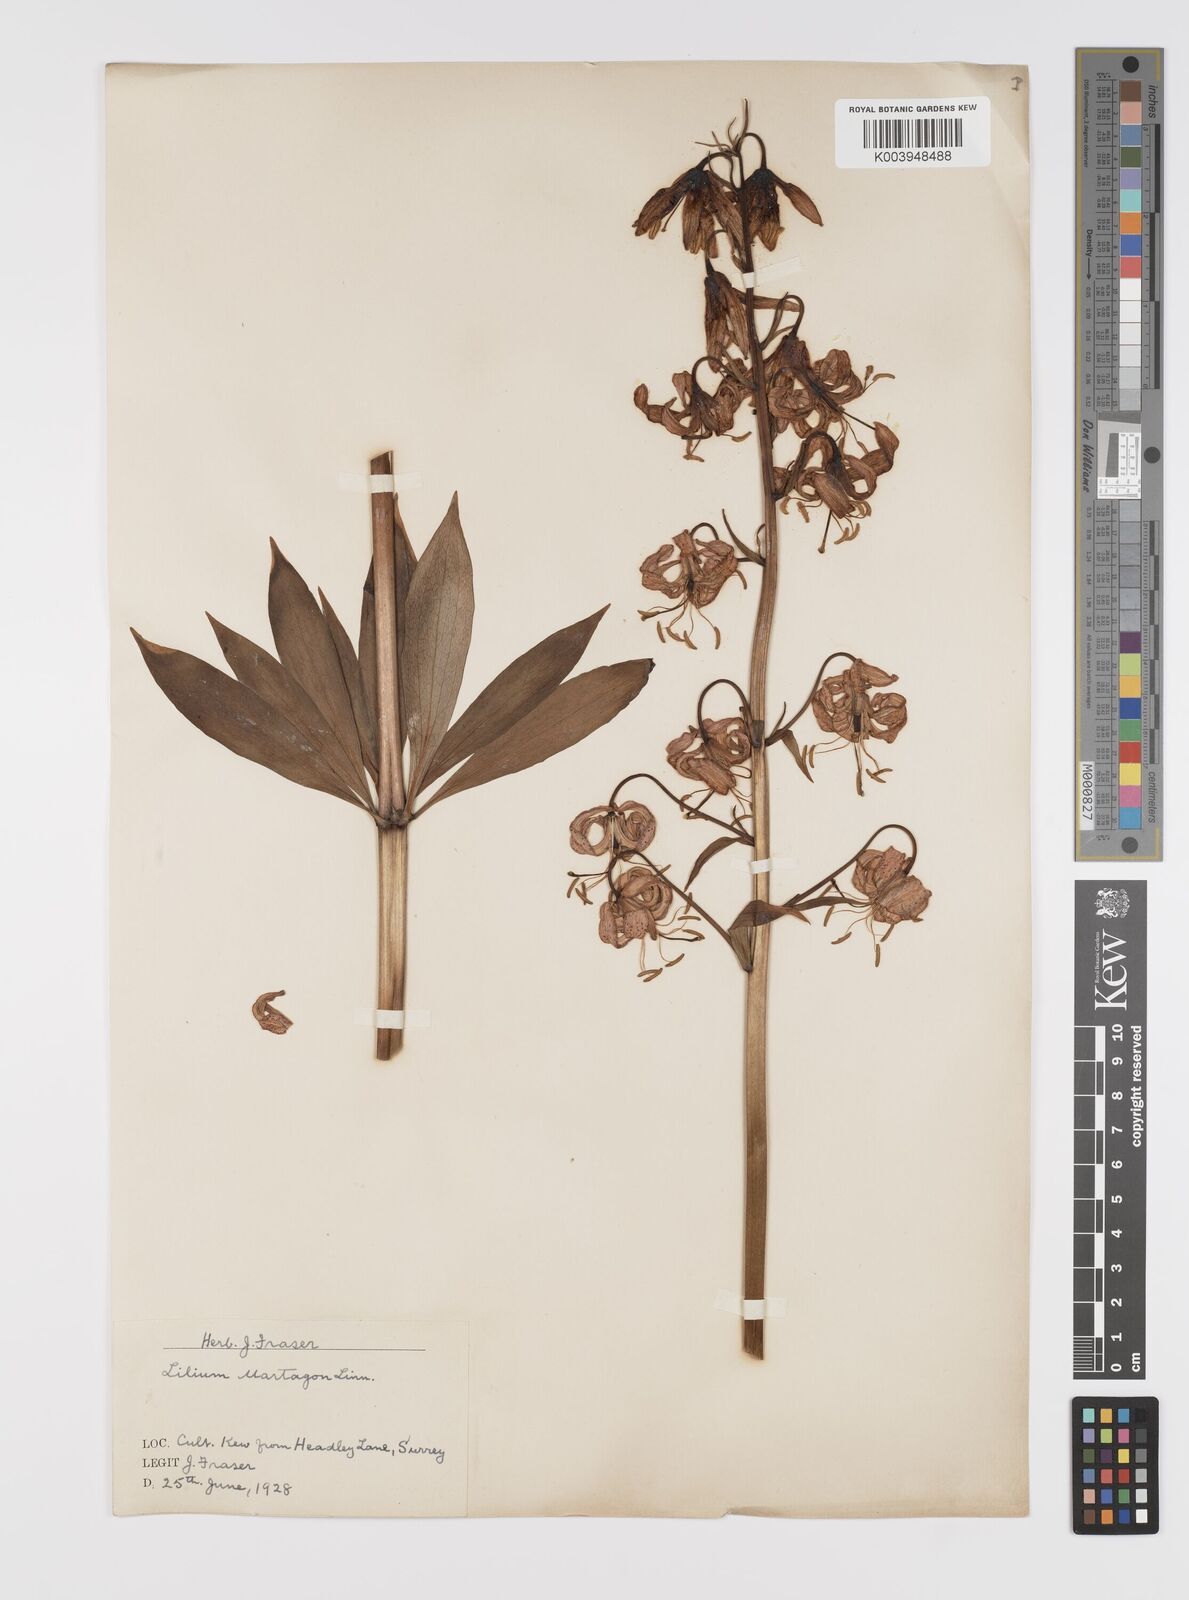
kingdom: Plantae
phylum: Tracheophyta
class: Liliopsida
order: Liliales
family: Liliaceae
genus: Lilium
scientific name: Lilium martagon
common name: Martagon lily
